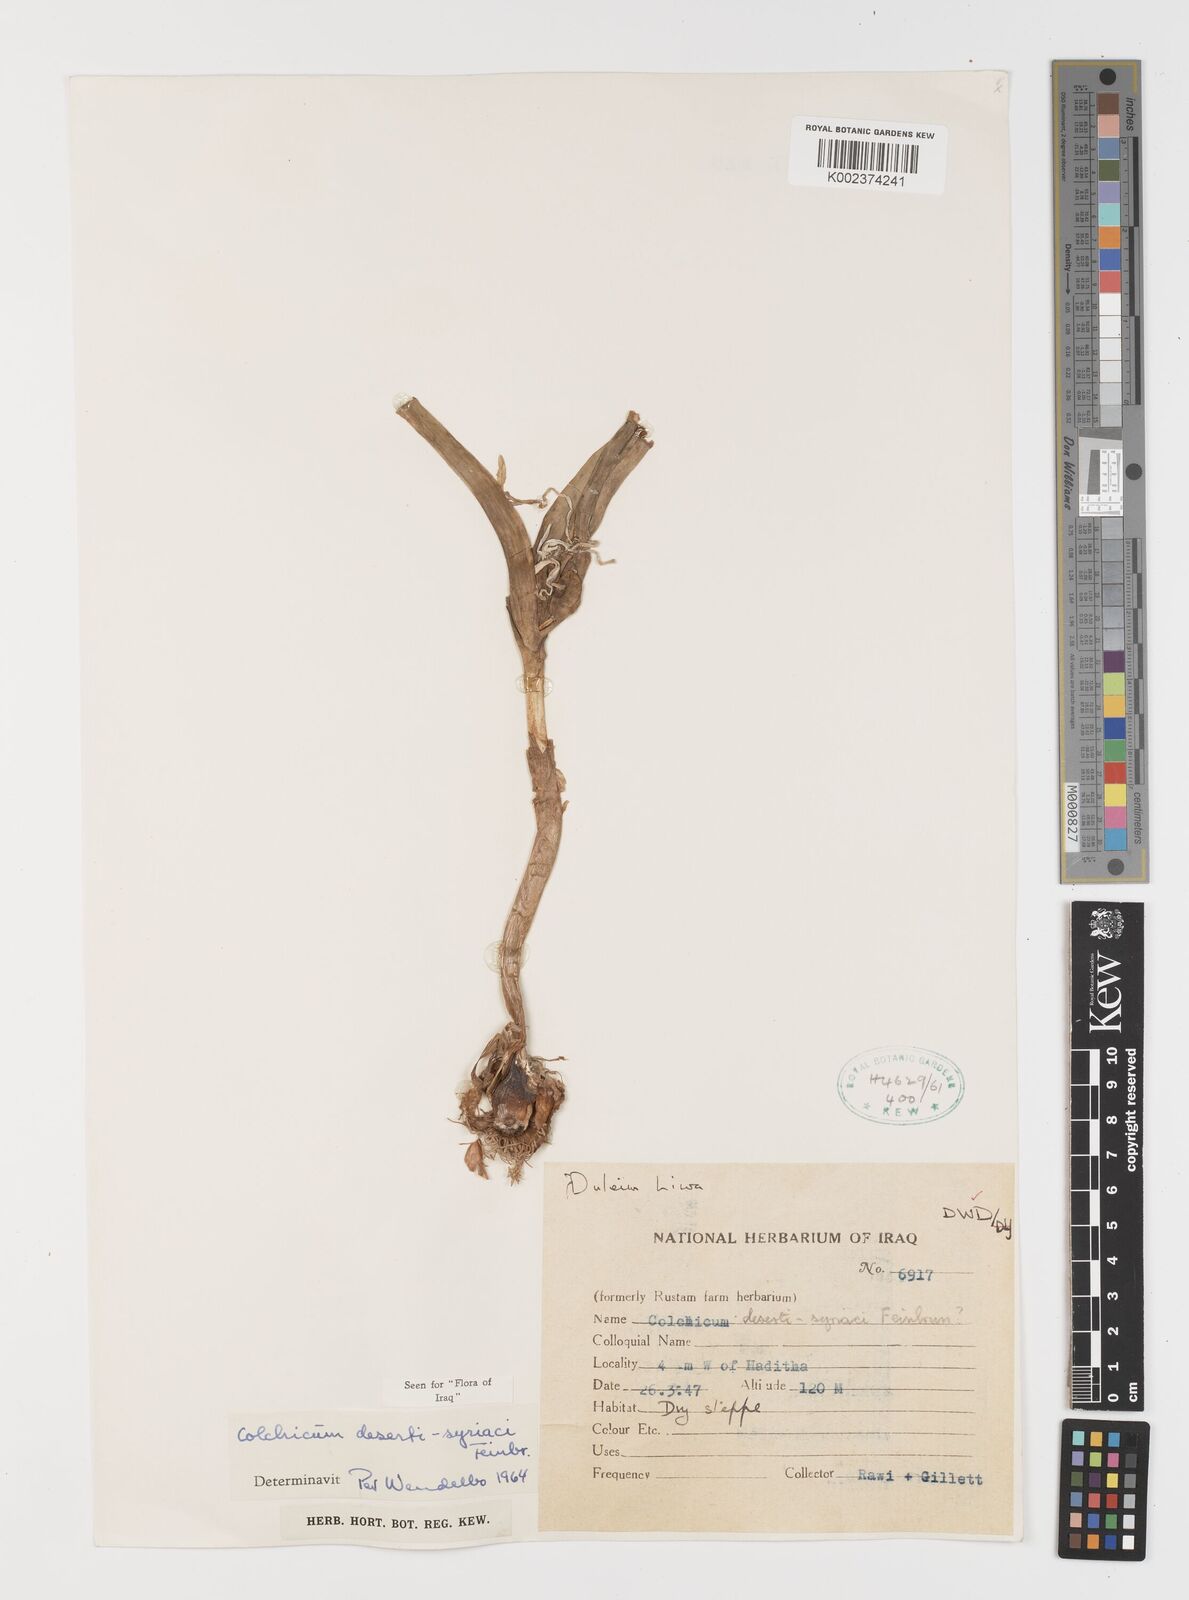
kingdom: Plantae
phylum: Tracheophyta
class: Liliopsida
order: Liliales
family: Colchicaceae
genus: Colchicum
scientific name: Colchicum schimperi
